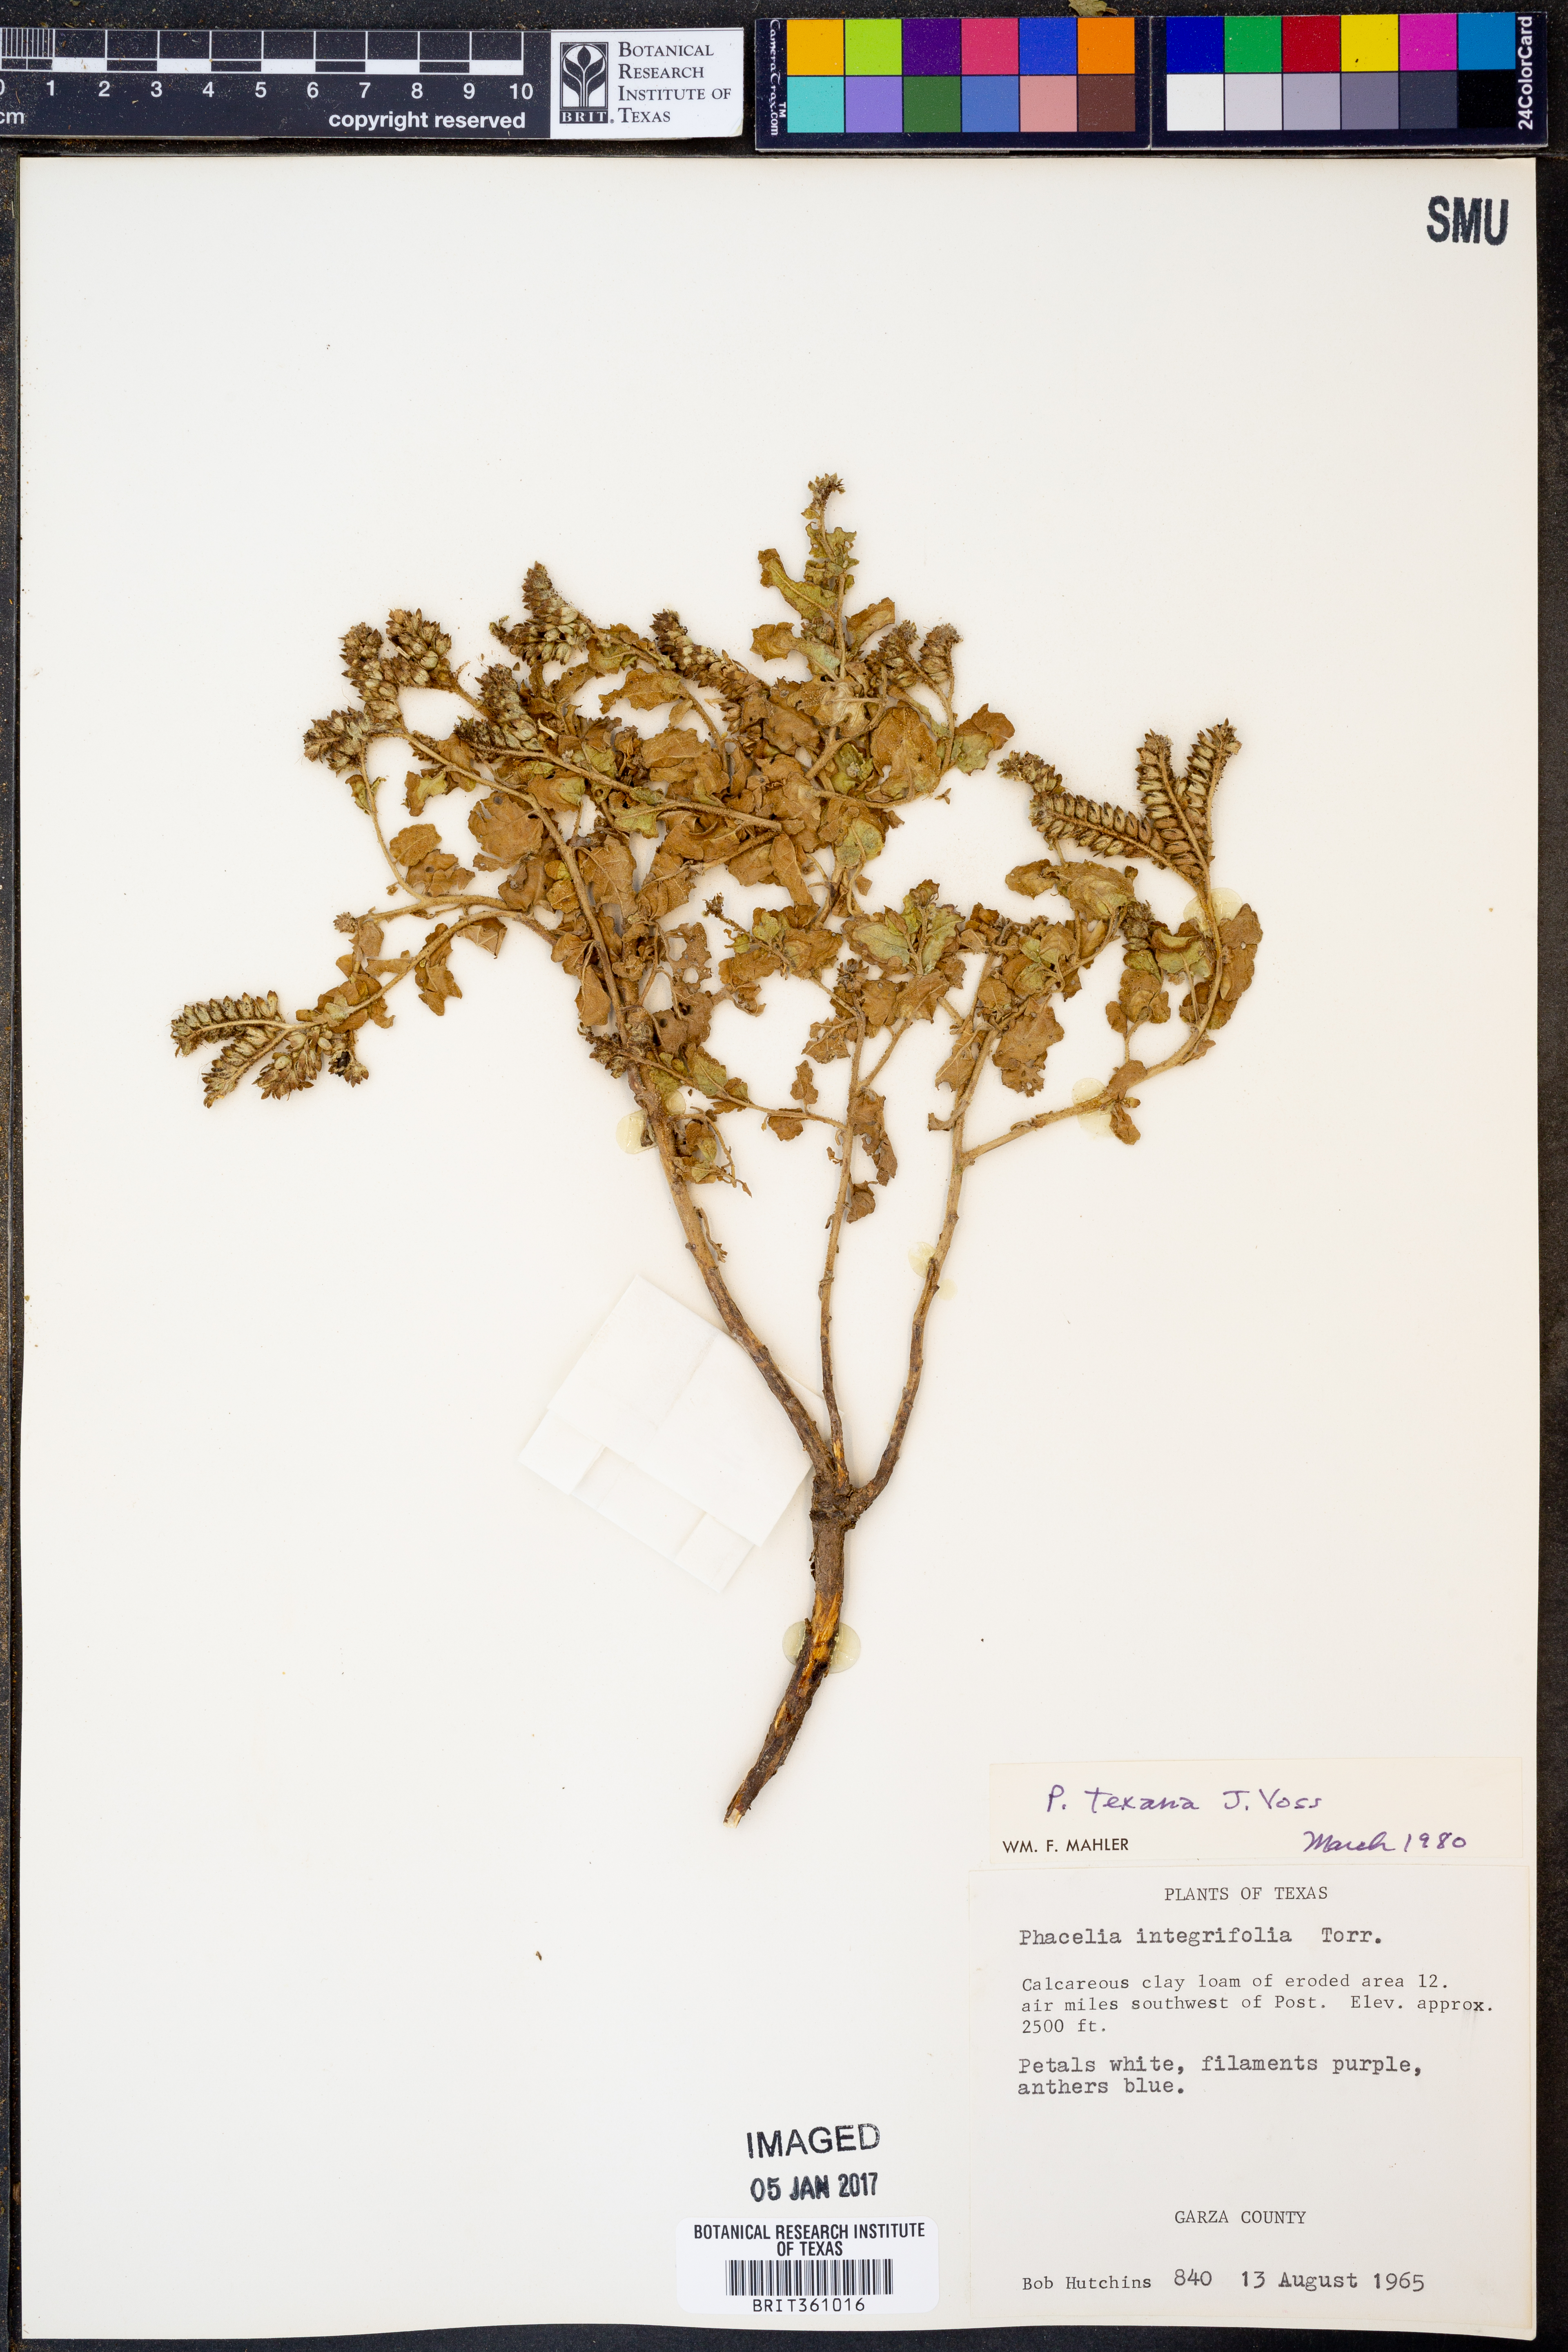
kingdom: Plantae
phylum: Tracheophyta
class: Magnoliopsida
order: Boraginales
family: Hydrophyllaceae
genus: Phacelia
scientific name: Phacelia integrifolia
